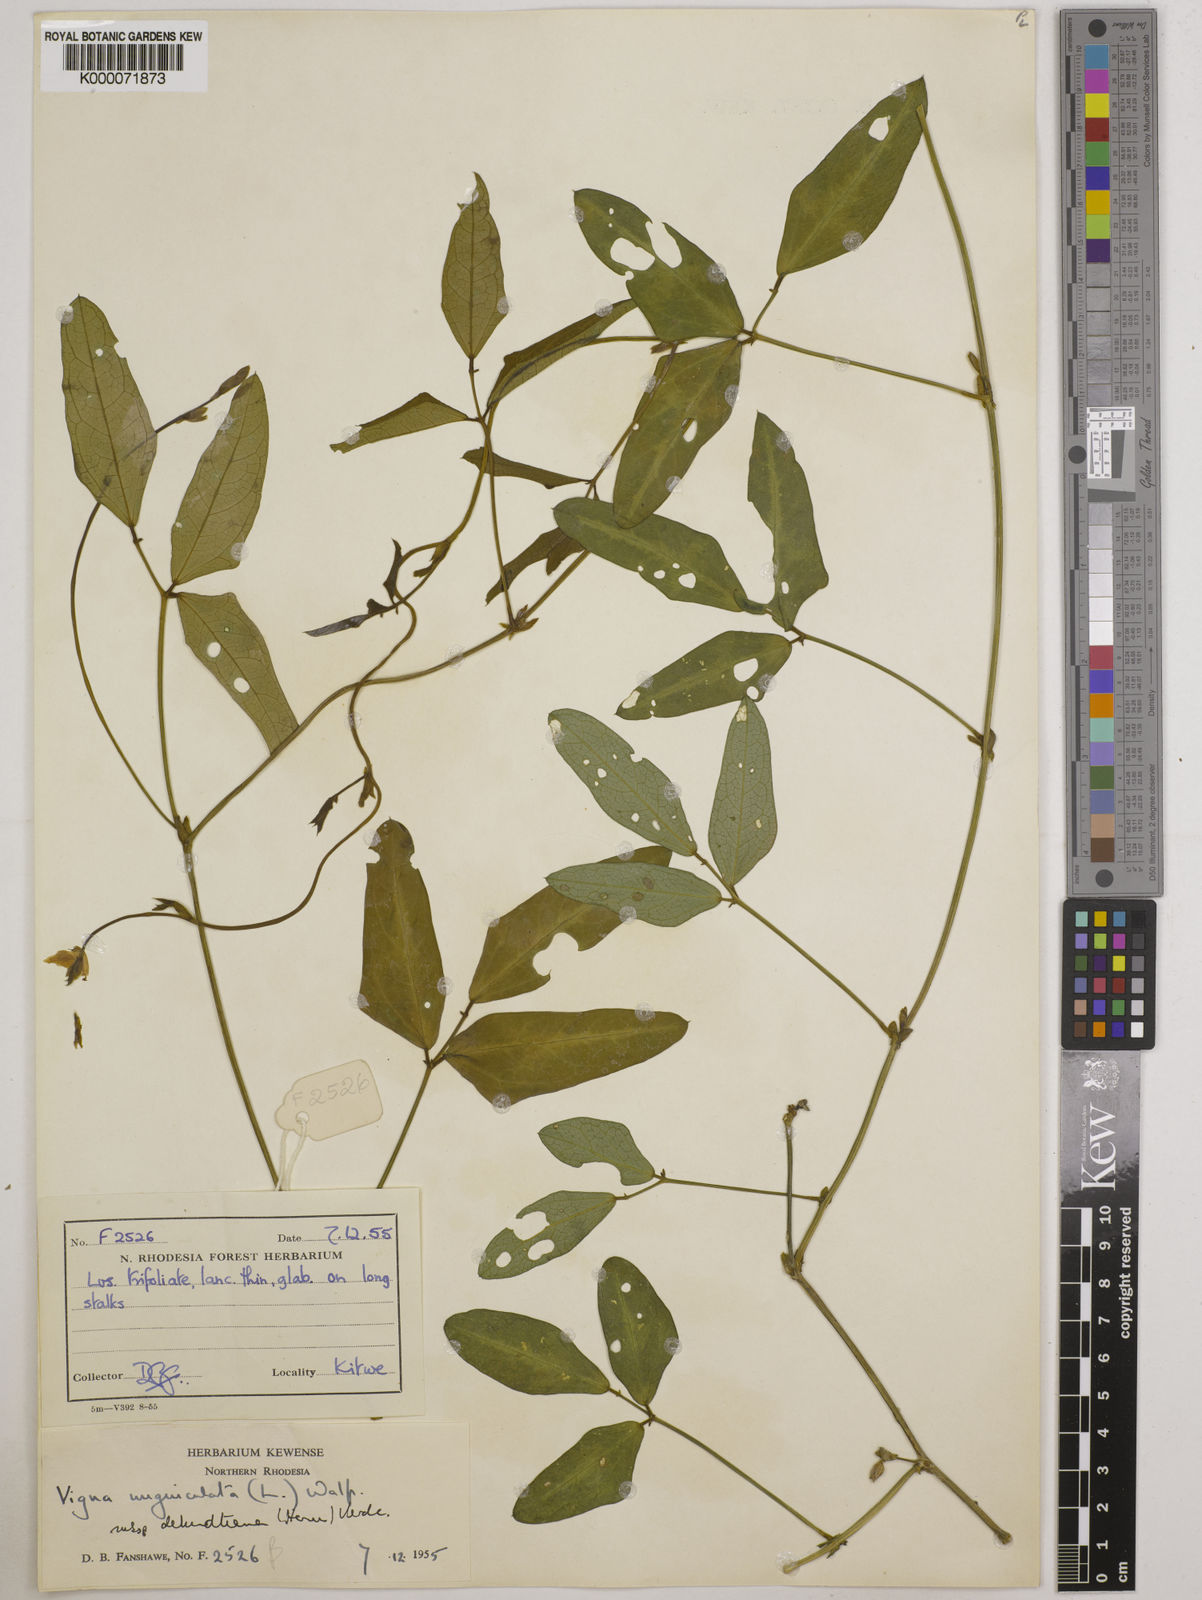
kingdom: Plantae
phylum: Tracheophyta
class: Magnoliopsida
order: Fabales
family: Fabaceae
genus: Vigna
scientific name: Vigna unguiculata
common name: Cowpea
